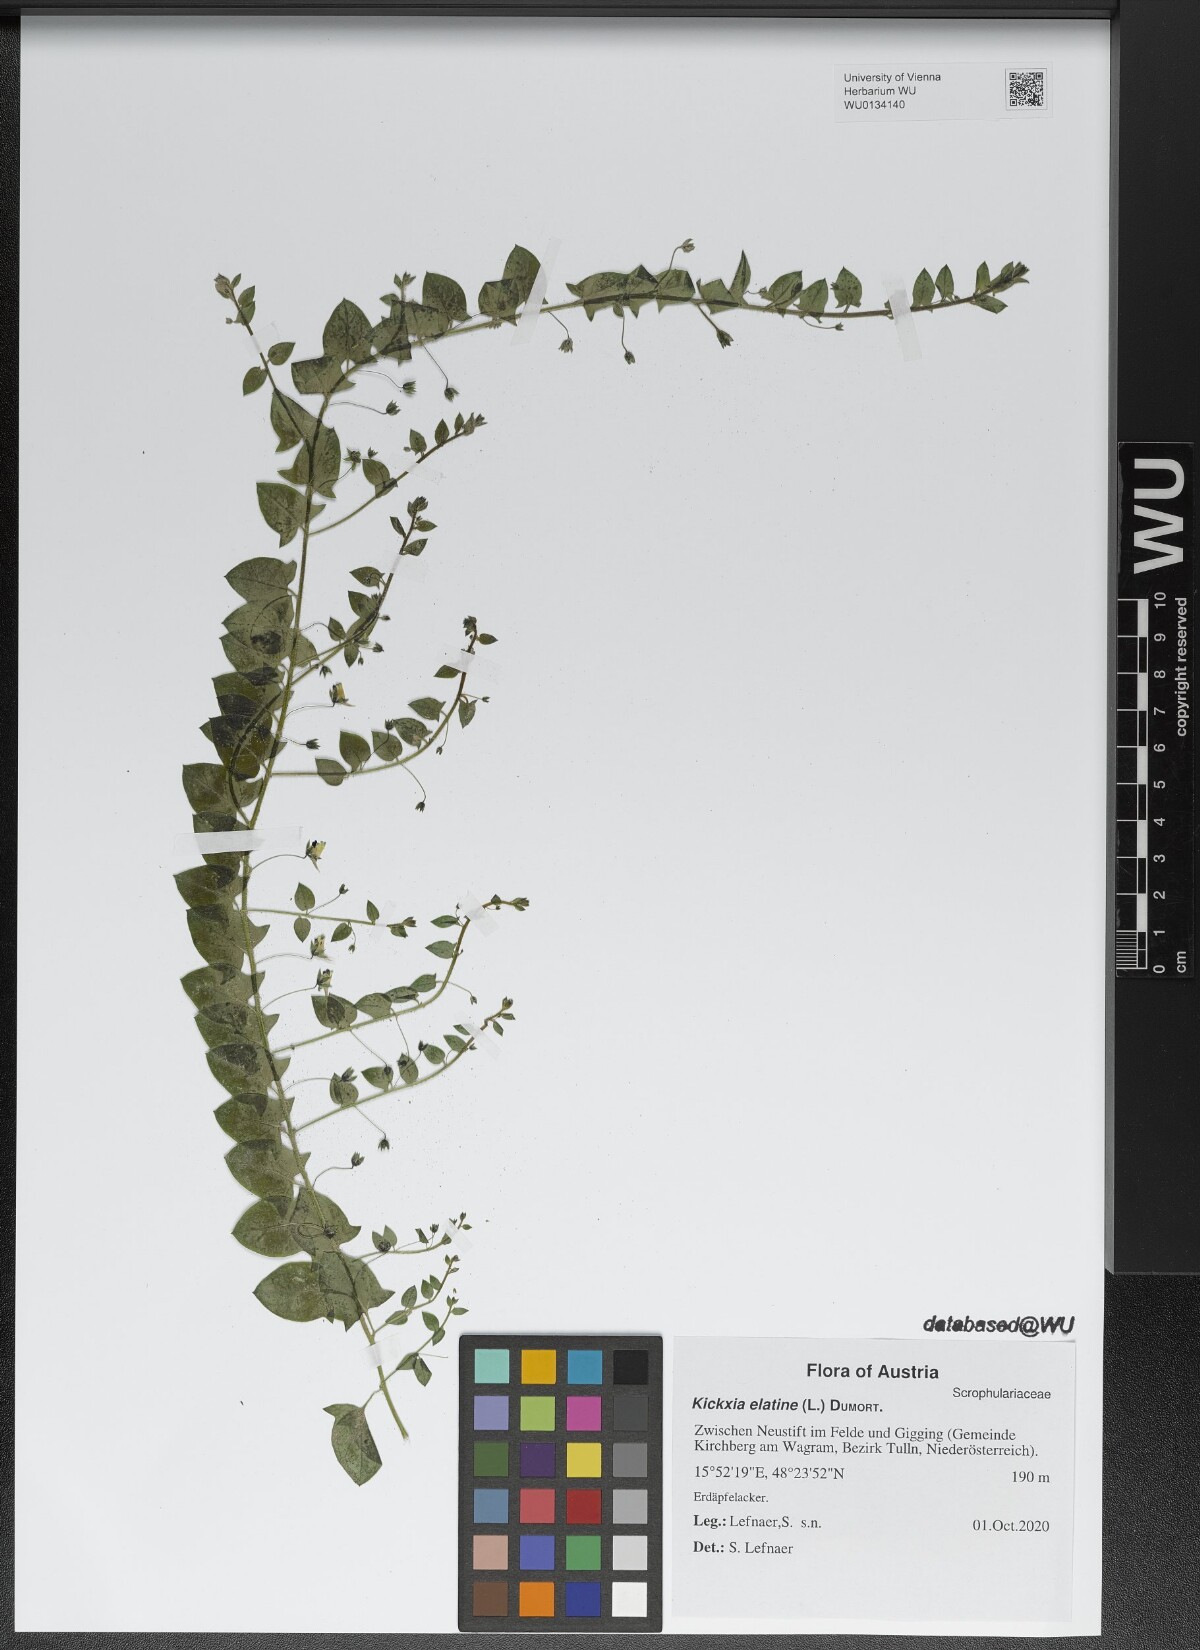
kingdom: Plantae
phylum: Tracheophyta
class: Magnoliopsida
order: Lamiales
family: Plantaginaceae
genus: Kickxia
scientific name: Kickxia elatine
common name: Sharp-leaved fluellen
